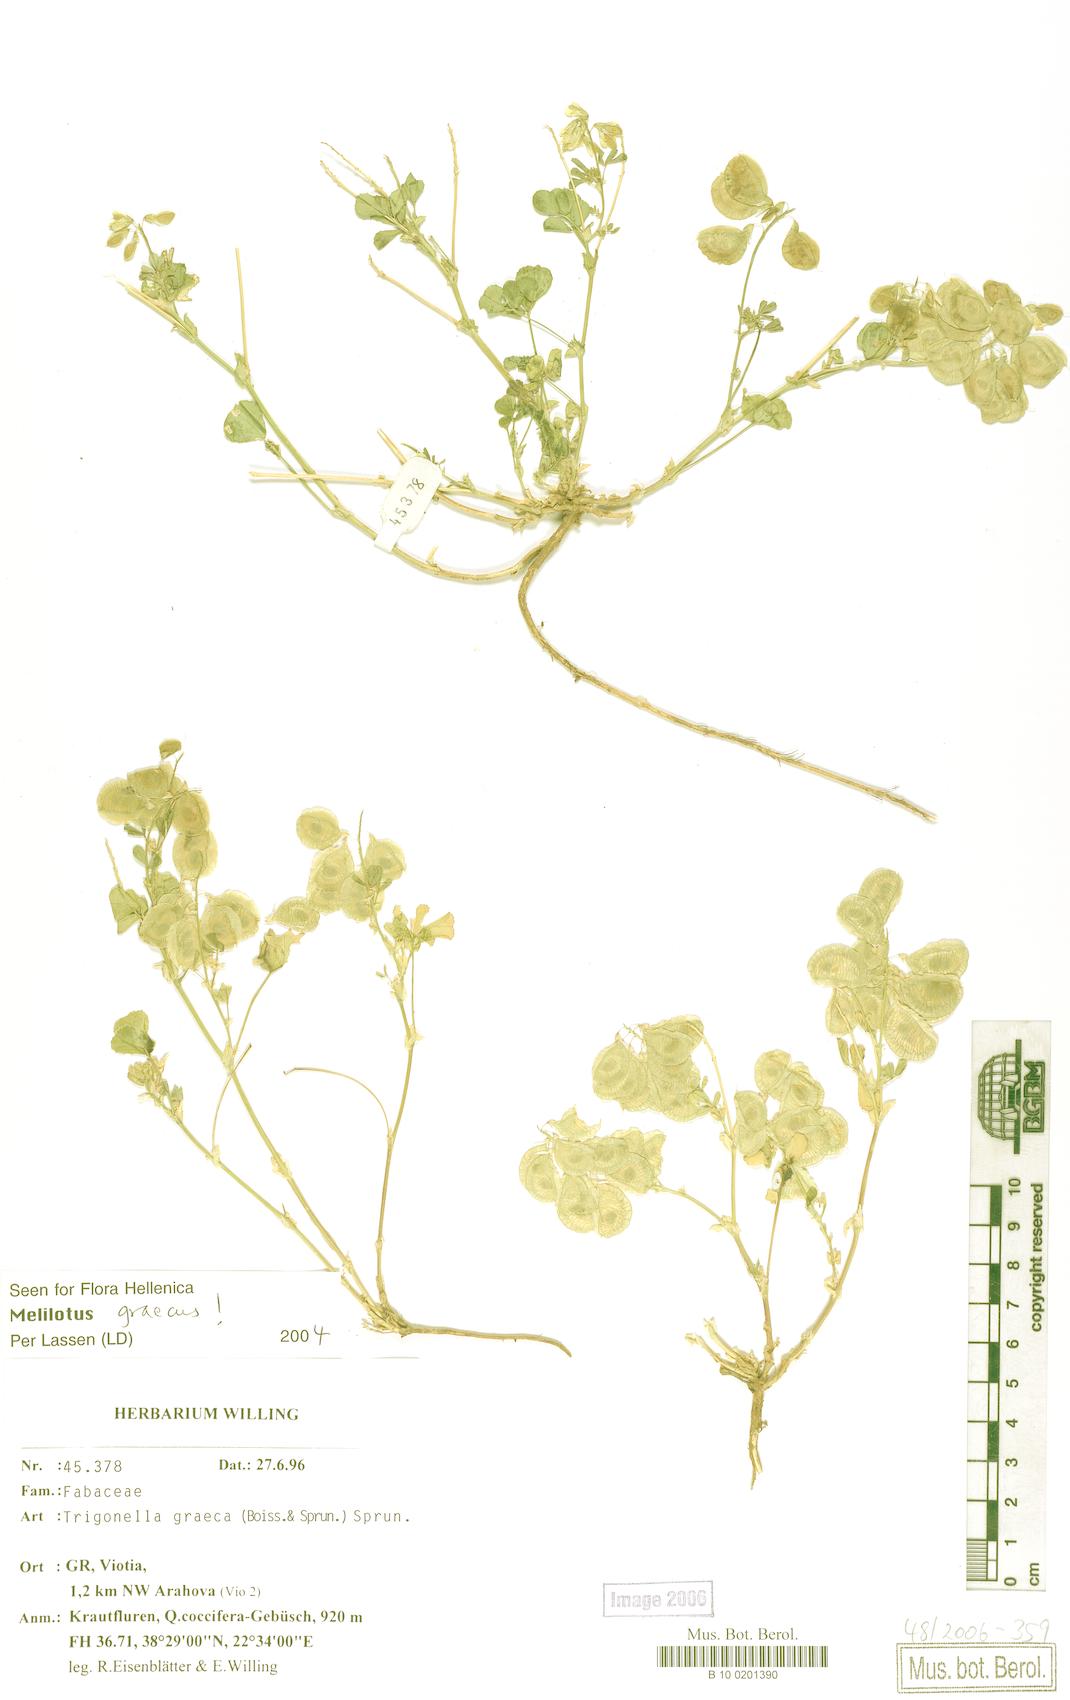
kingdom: Plantae
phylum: Tracheophyta
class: Magnoliopsida
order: Fabales
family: Fabaceae
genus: Trigonella
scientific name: Trigonella graeca
